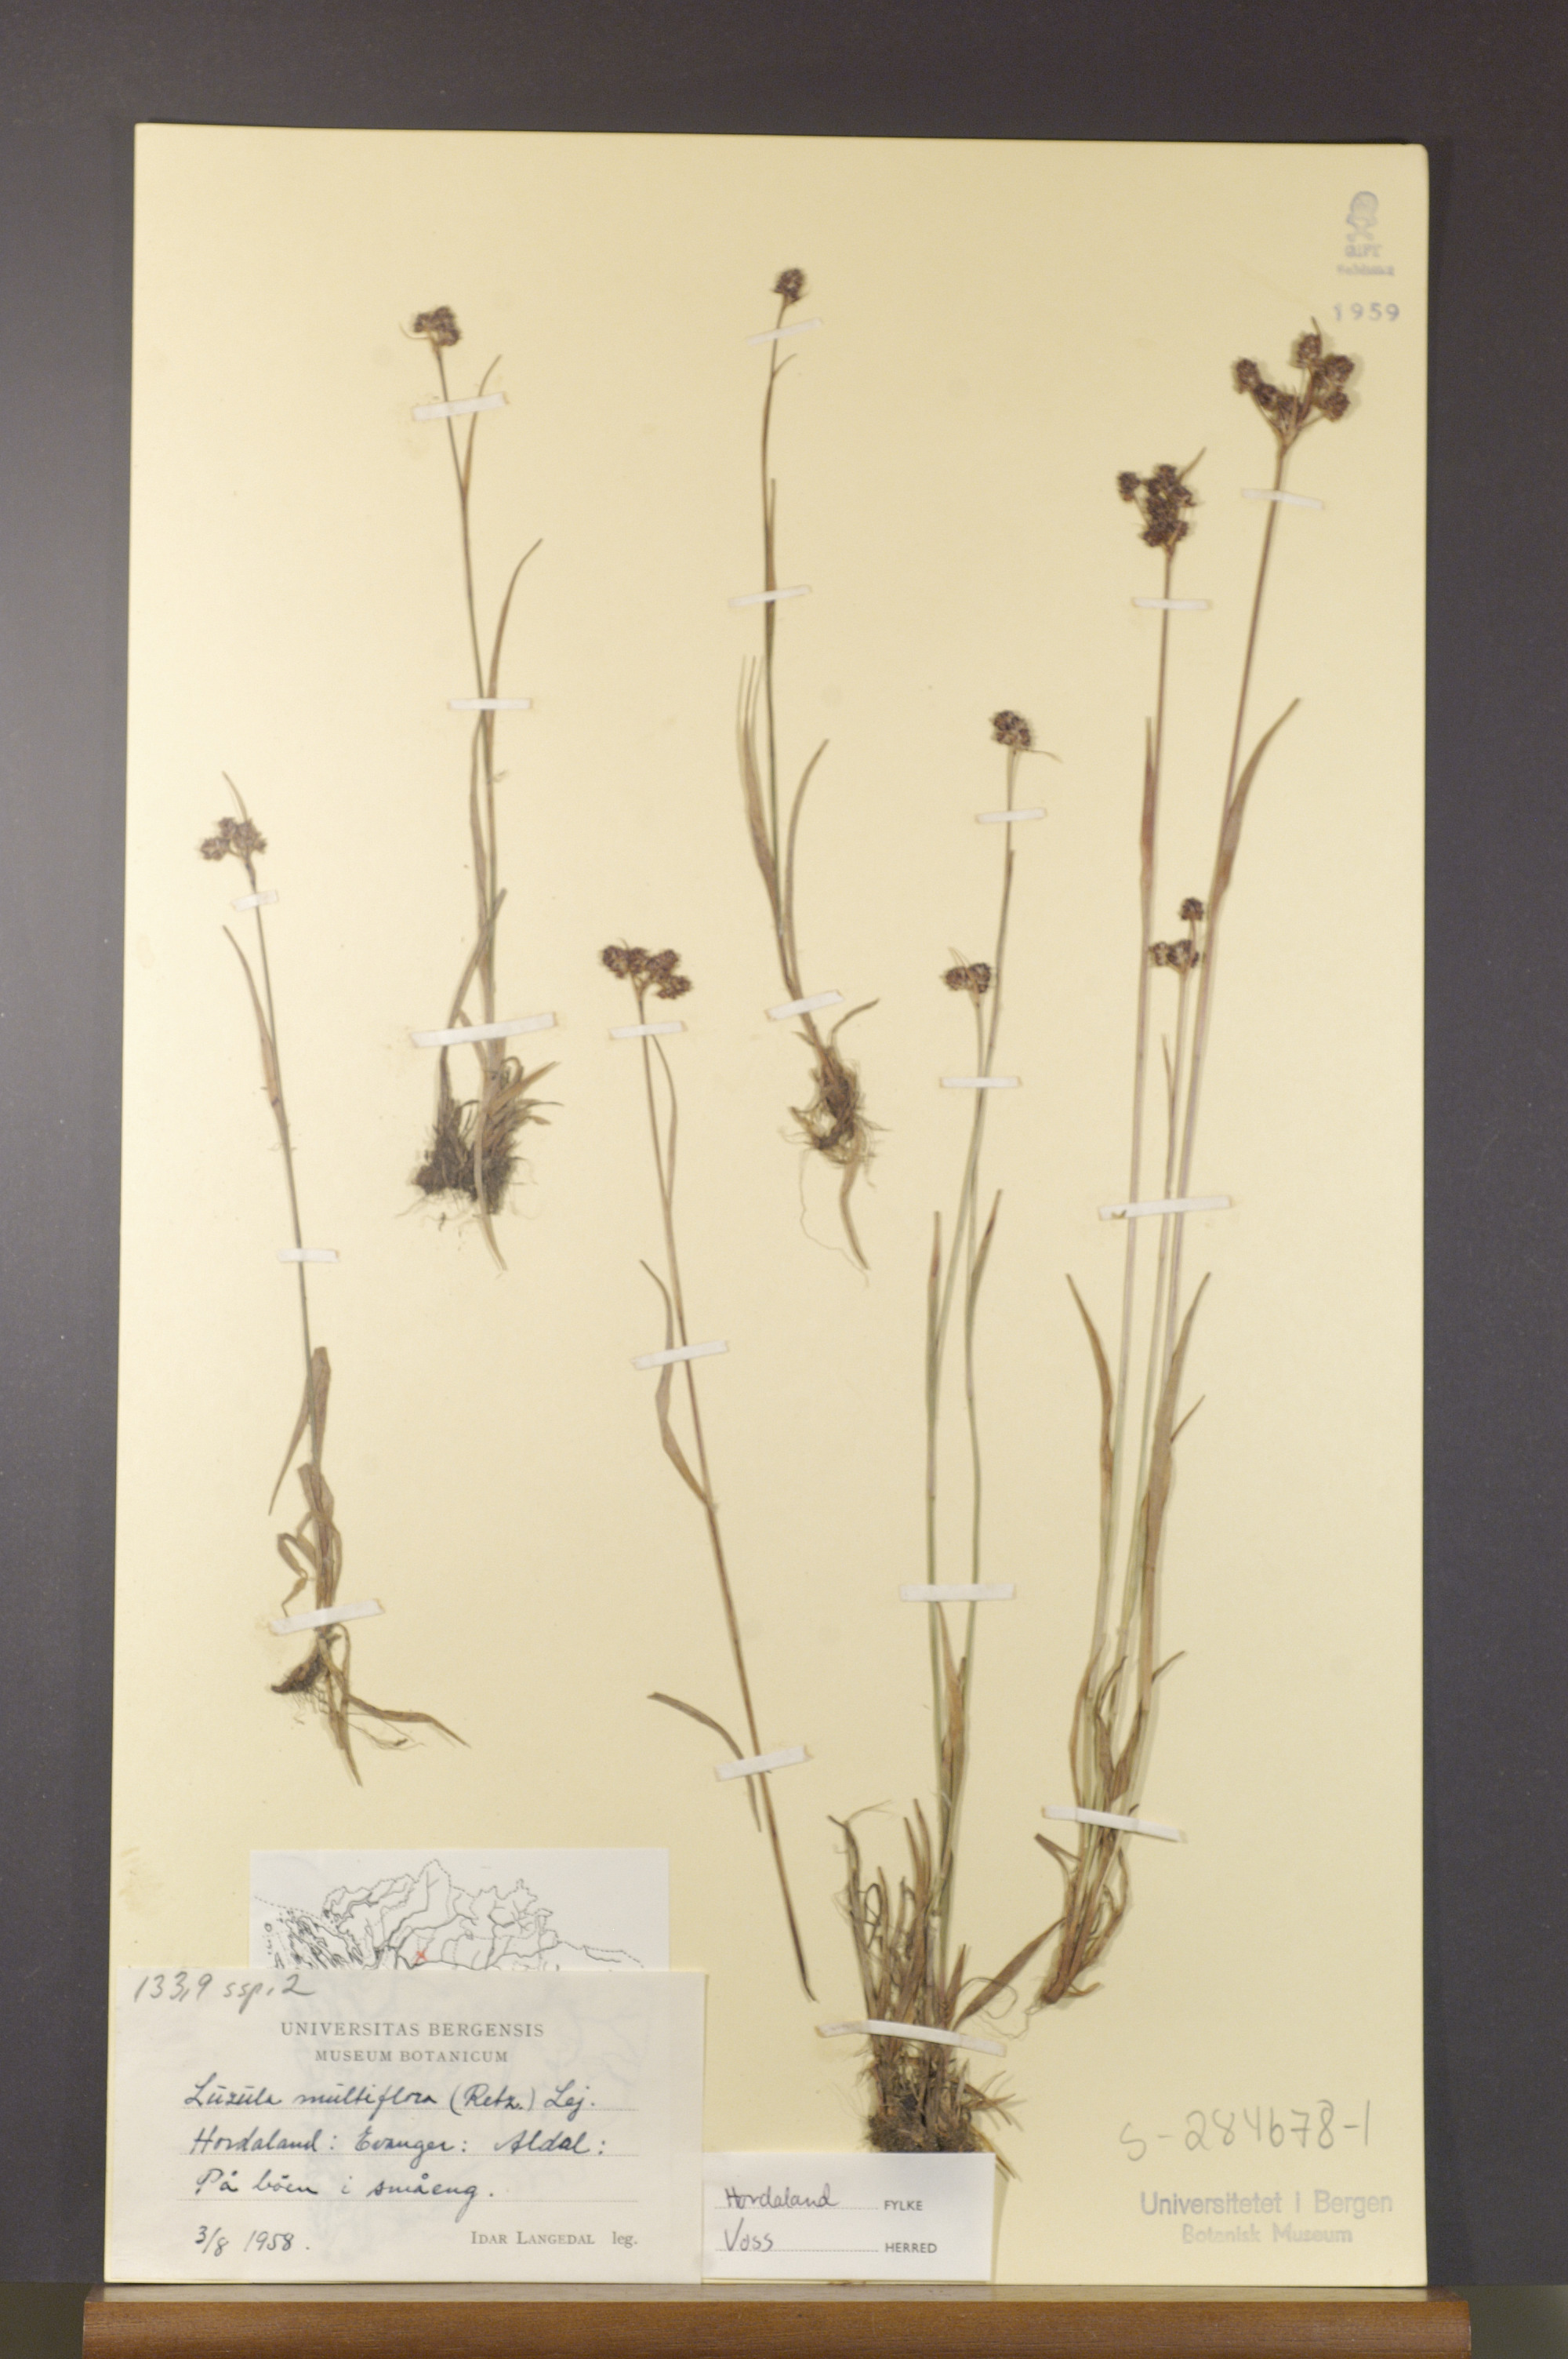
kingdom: Plantae
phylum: Tracheophyta
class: Liliopsida
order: Poales
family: Juncaceae
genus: Luzula
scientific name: Luzula multiflora
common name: Heath wood-rush
